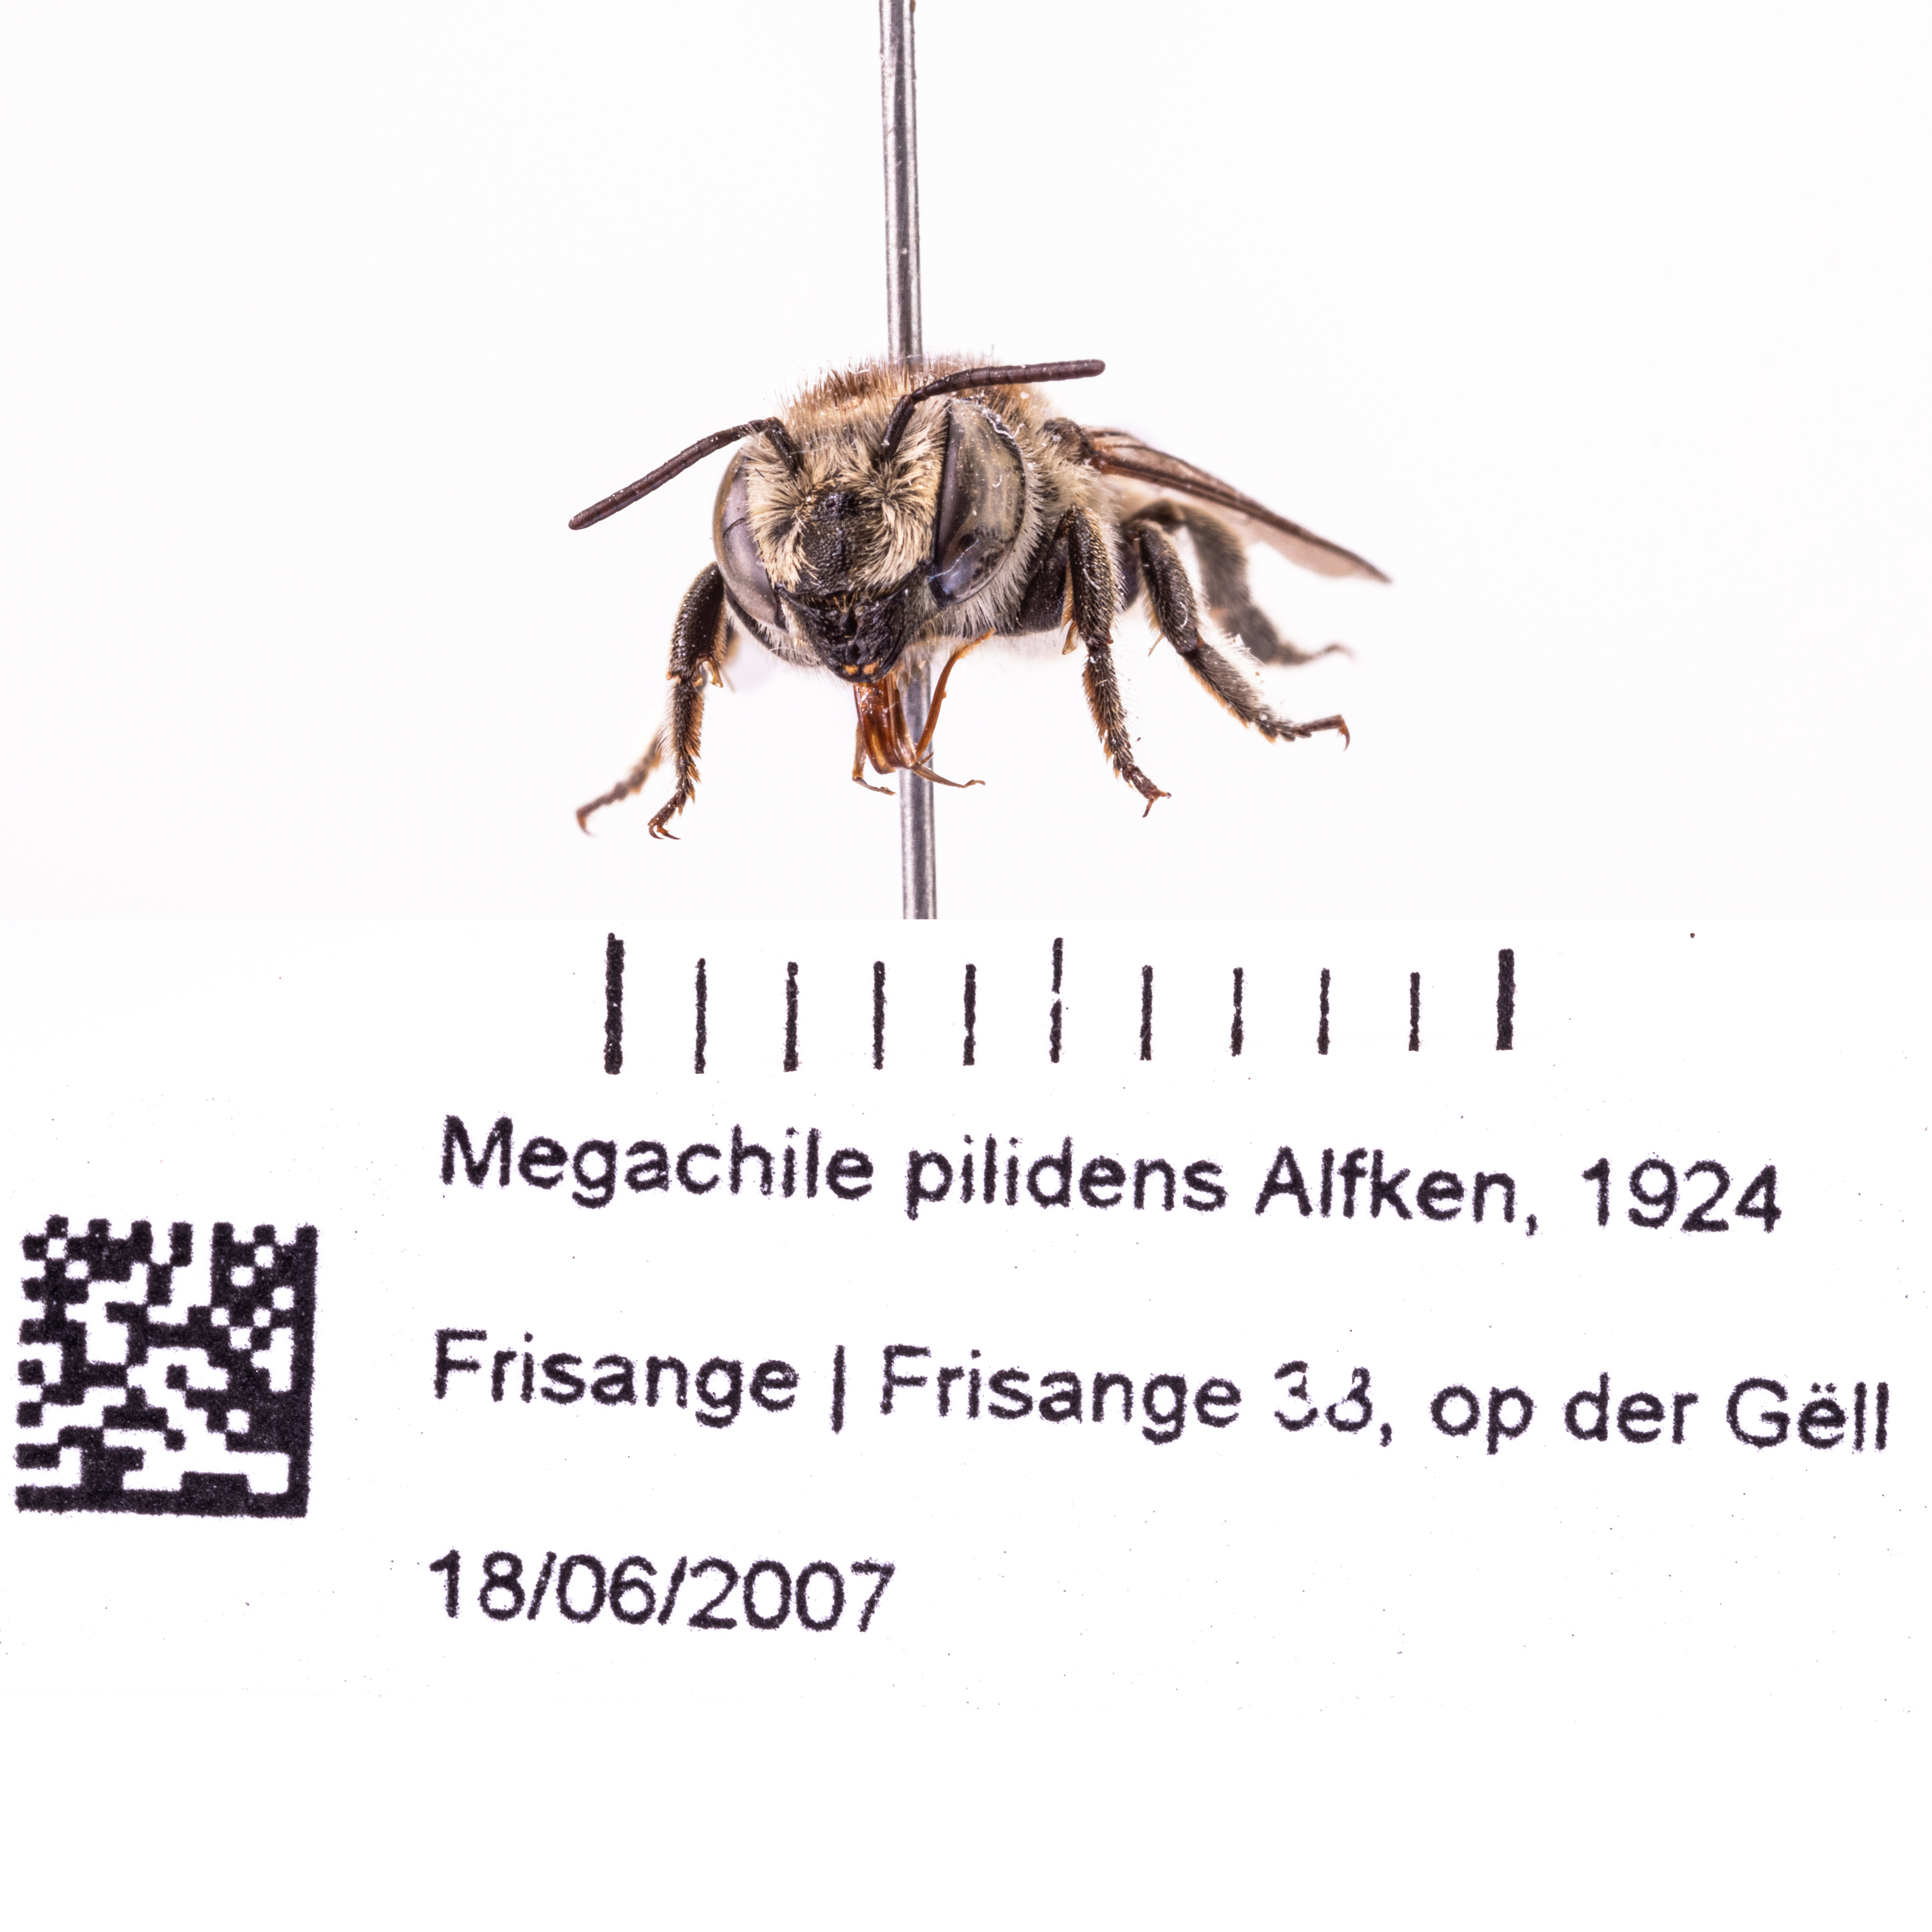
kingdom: Animalia
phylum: Arthropoda
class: Insecta
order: Hymenoptera
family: Megachilidae
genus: Megachile
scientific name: Megachile pilidens
